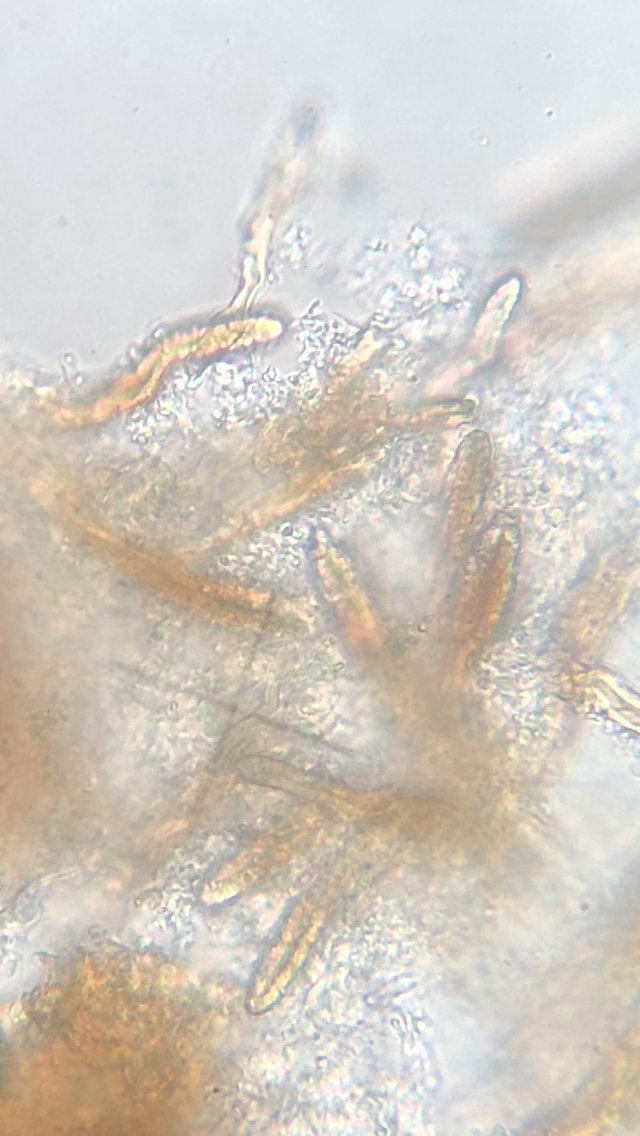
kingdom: Fungi
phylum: Basidiomycota
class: Agaricomycetes
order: Russulales
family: Echinodontiaceae
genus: Amylostereum
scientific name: Amylostereum laevigatum
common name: ene-lædersvamp
